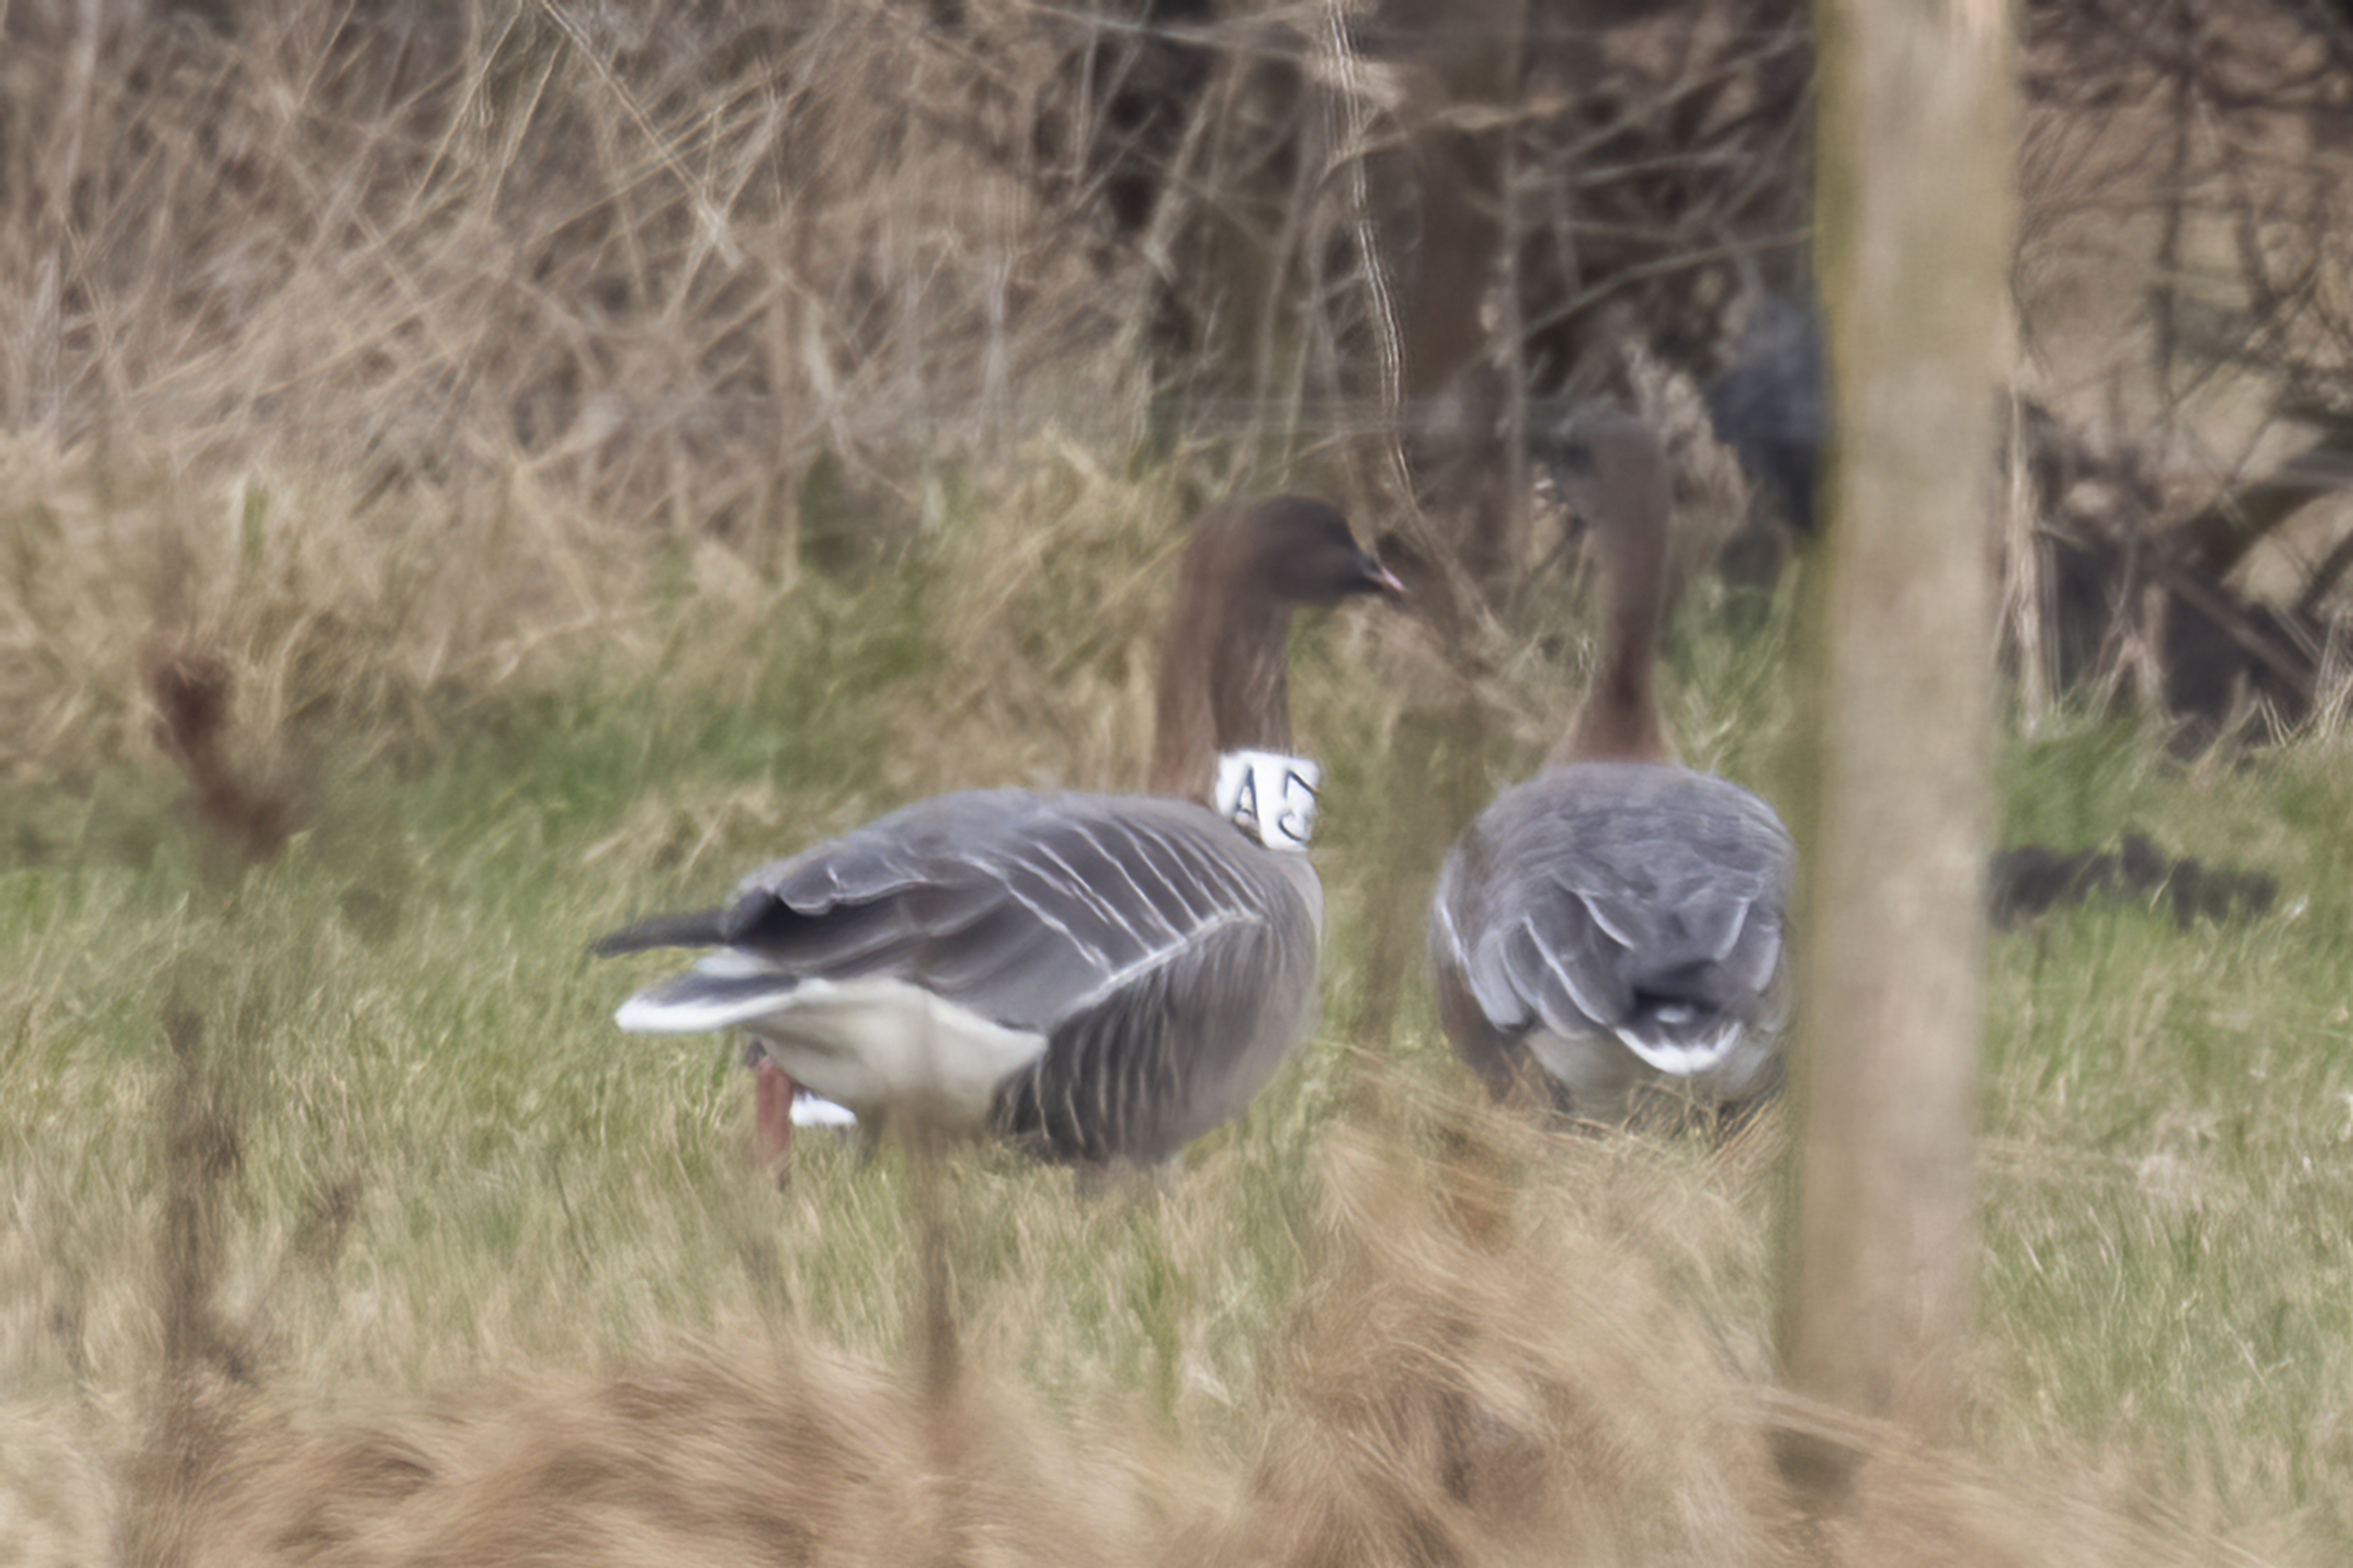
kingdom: Animalia
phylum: Chordata
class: Aves
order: Anseriformes
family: Anatidae
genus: Anser
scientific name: Anser brachyrhynchus
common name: Kortnæbbet gås
